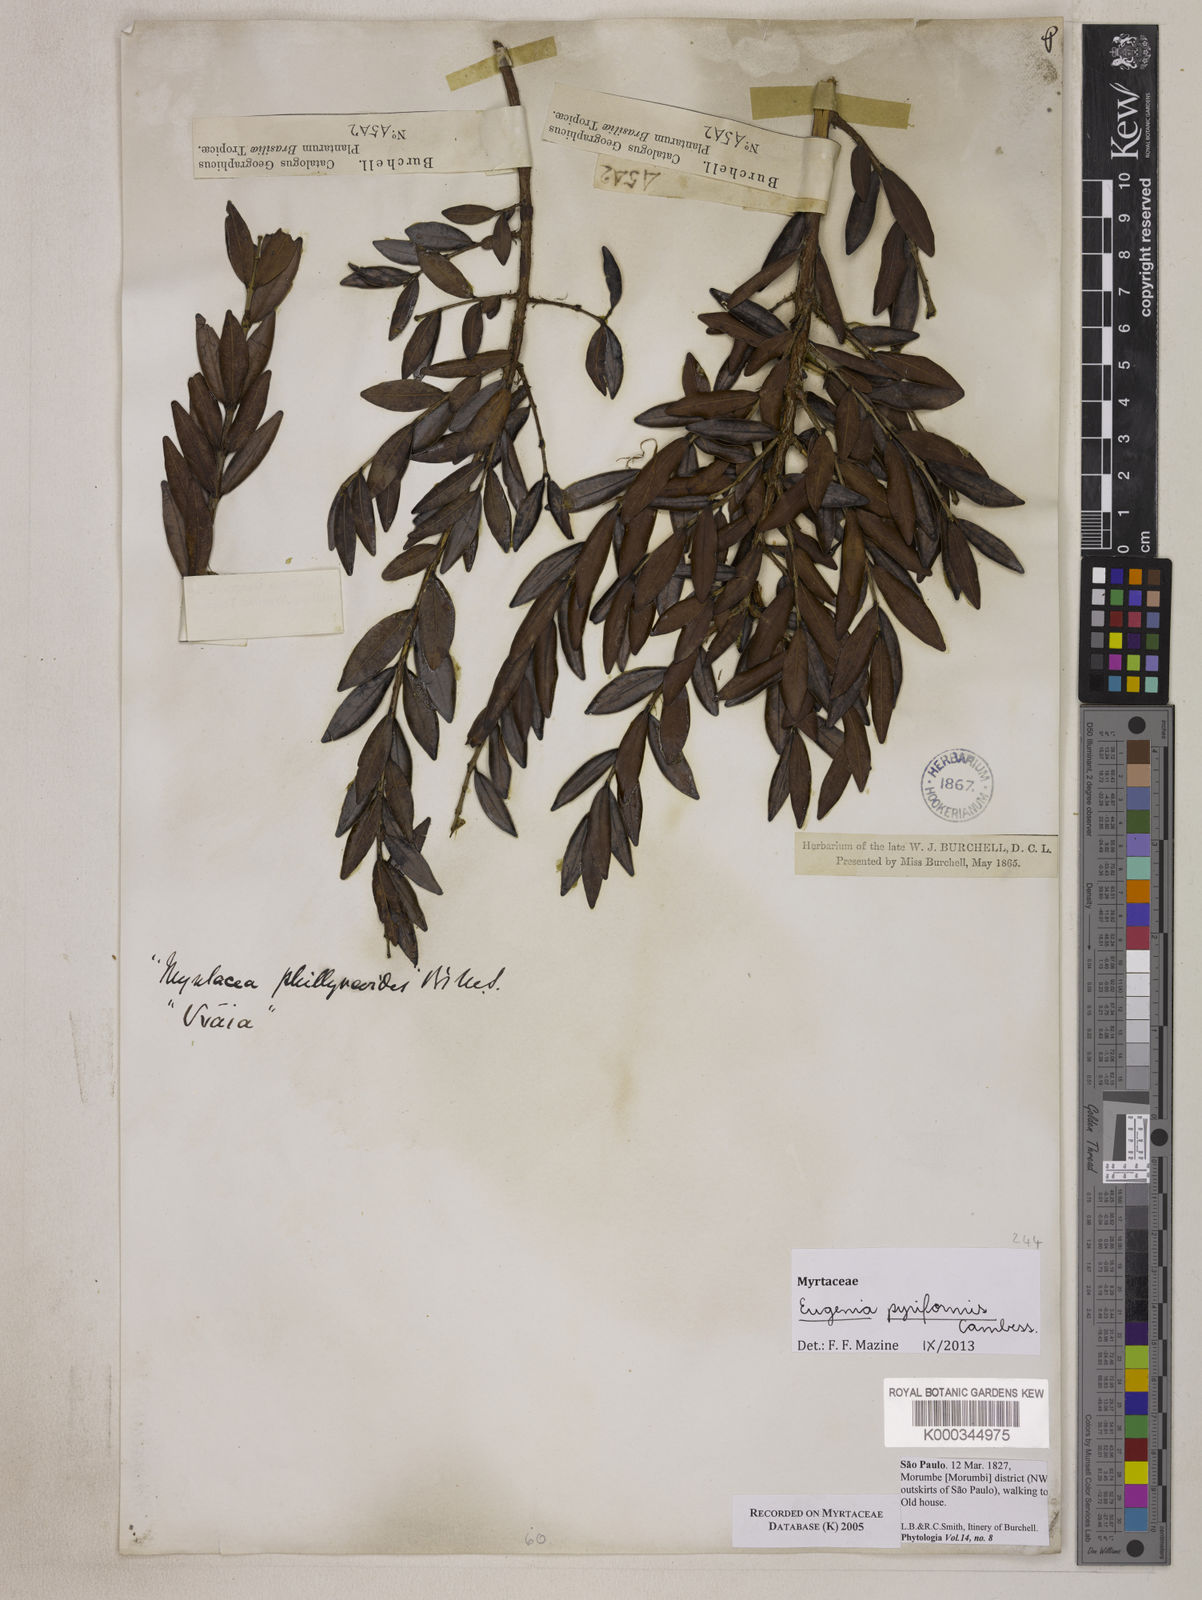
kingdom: Plantae
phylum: Tracheophyta
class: Magnoliopsida
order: Myrtales
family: Myrtaceae
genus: Myrcia
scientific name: Myrcia
